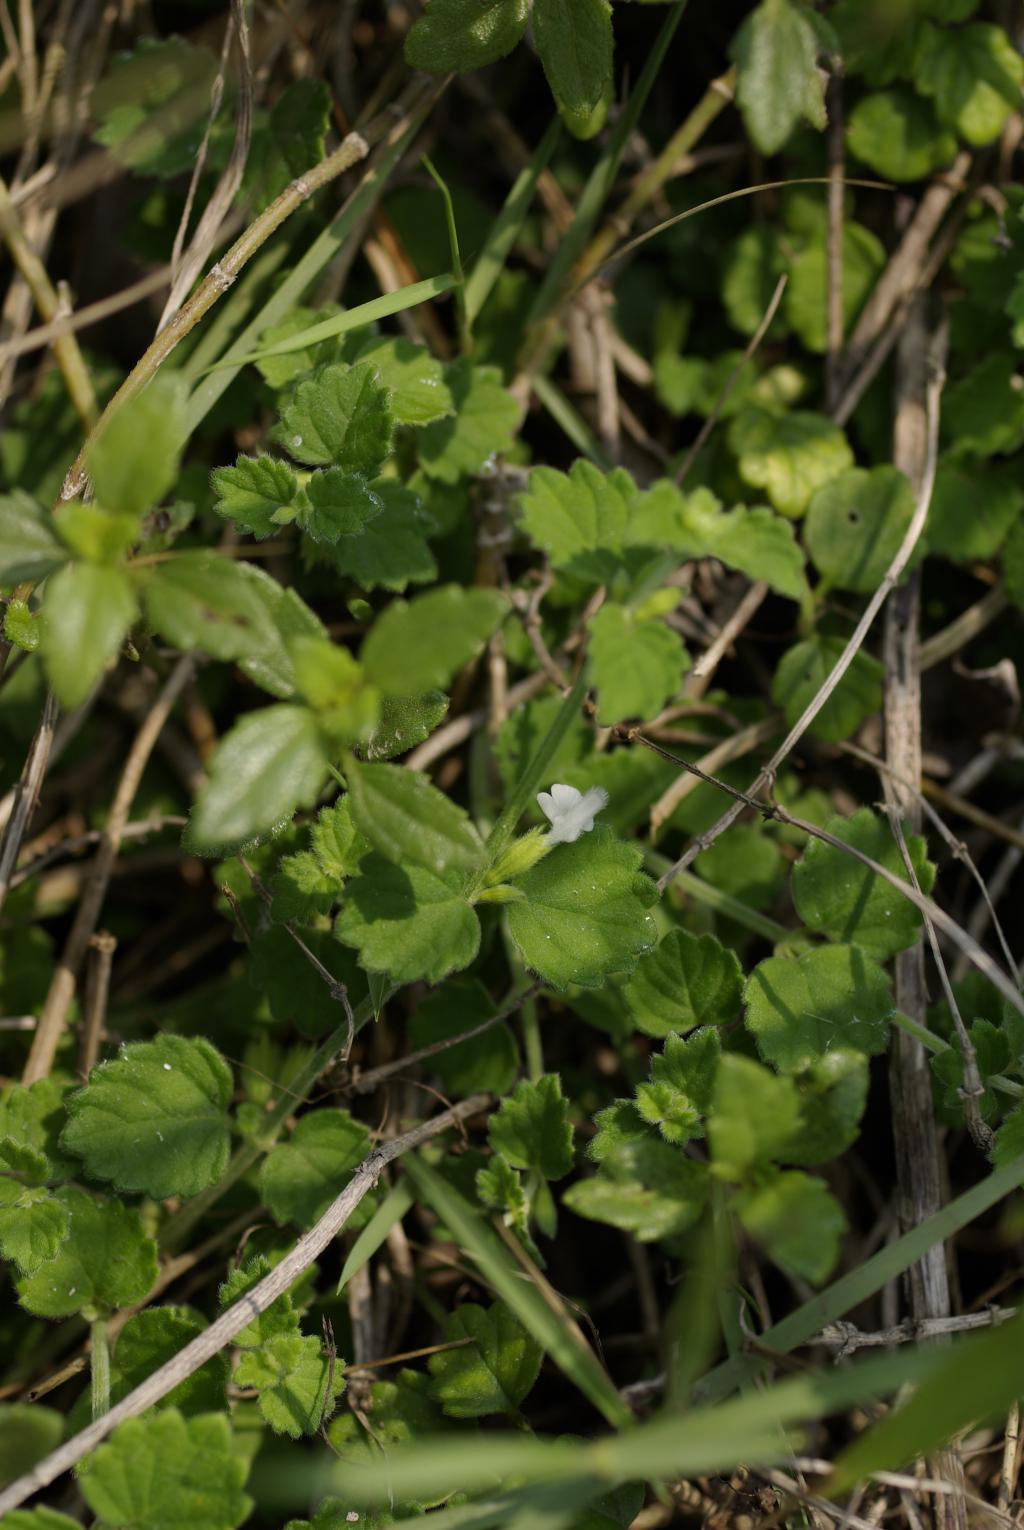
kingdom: Plantae
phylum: Tracheophyta
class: Magnoliopsida
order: Lamiales
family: Lamiaceae
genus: Leucas
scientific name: Leucas chinensis
